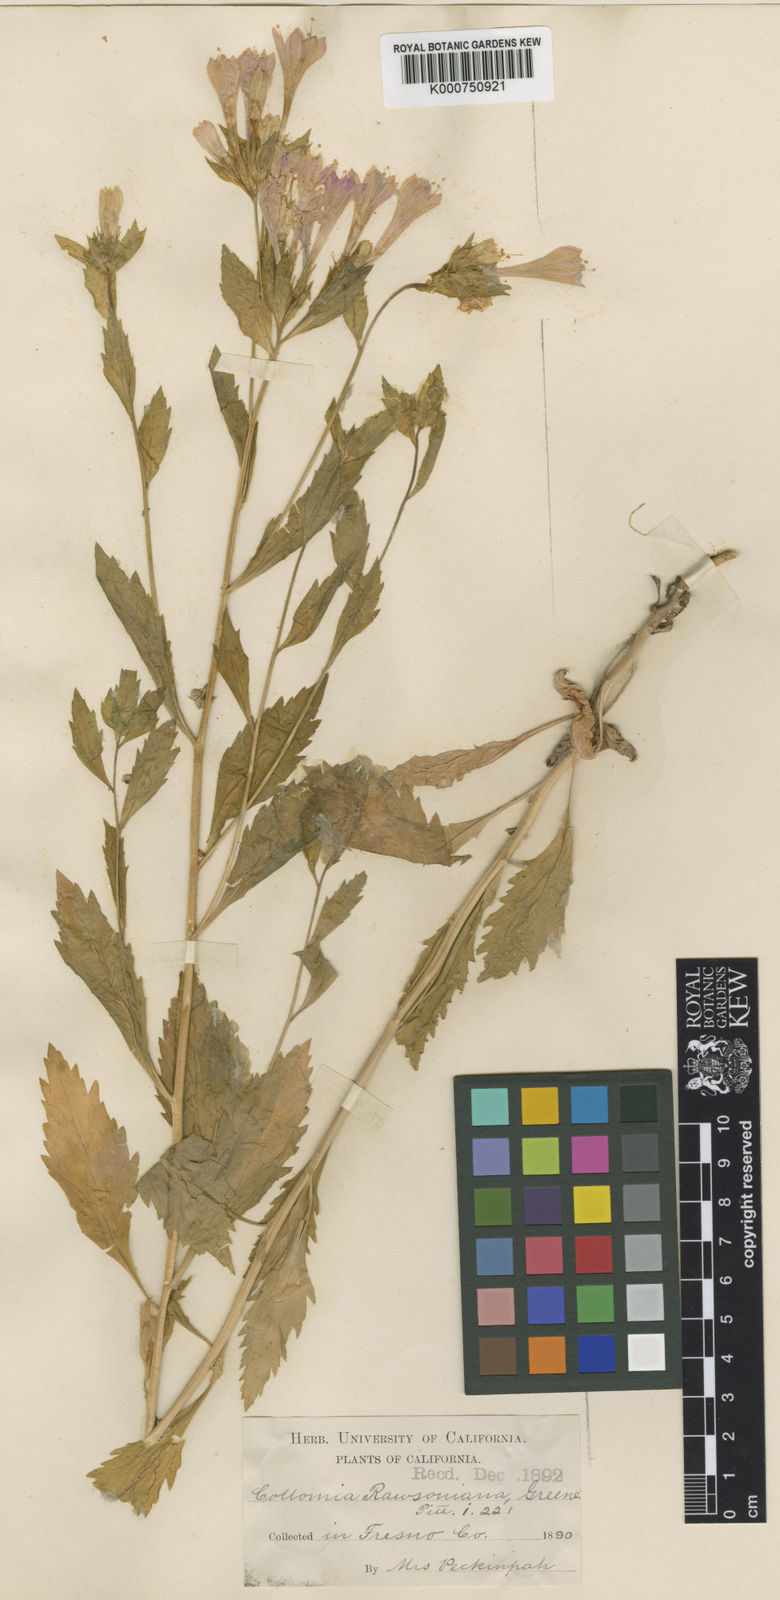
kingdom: Plantae
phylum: Tracheophyta
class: Magnoliopsida
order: Ericales
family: Polemoniaceae
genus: Collomia
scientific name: Collomia rawsoniana
